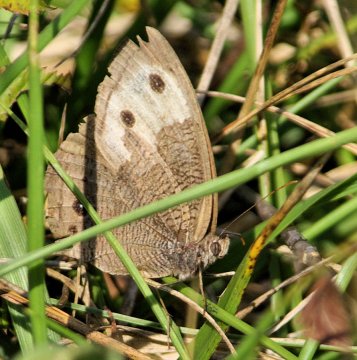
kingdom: Animalia
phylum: Arthropoda
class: Insecta
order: Lepidoptera
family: Nymphalidae
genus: Cercyonis
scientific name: Cercyonis pegala
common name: Common Wood-Nymph
